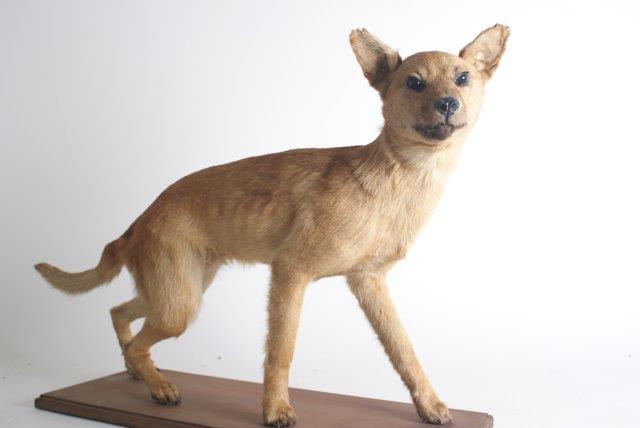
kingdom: Animalia
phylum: Chordata
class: Mammalia
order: Carnivora
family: Canidae
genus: Canis
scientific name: Canis lupus
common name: Gray wolf
